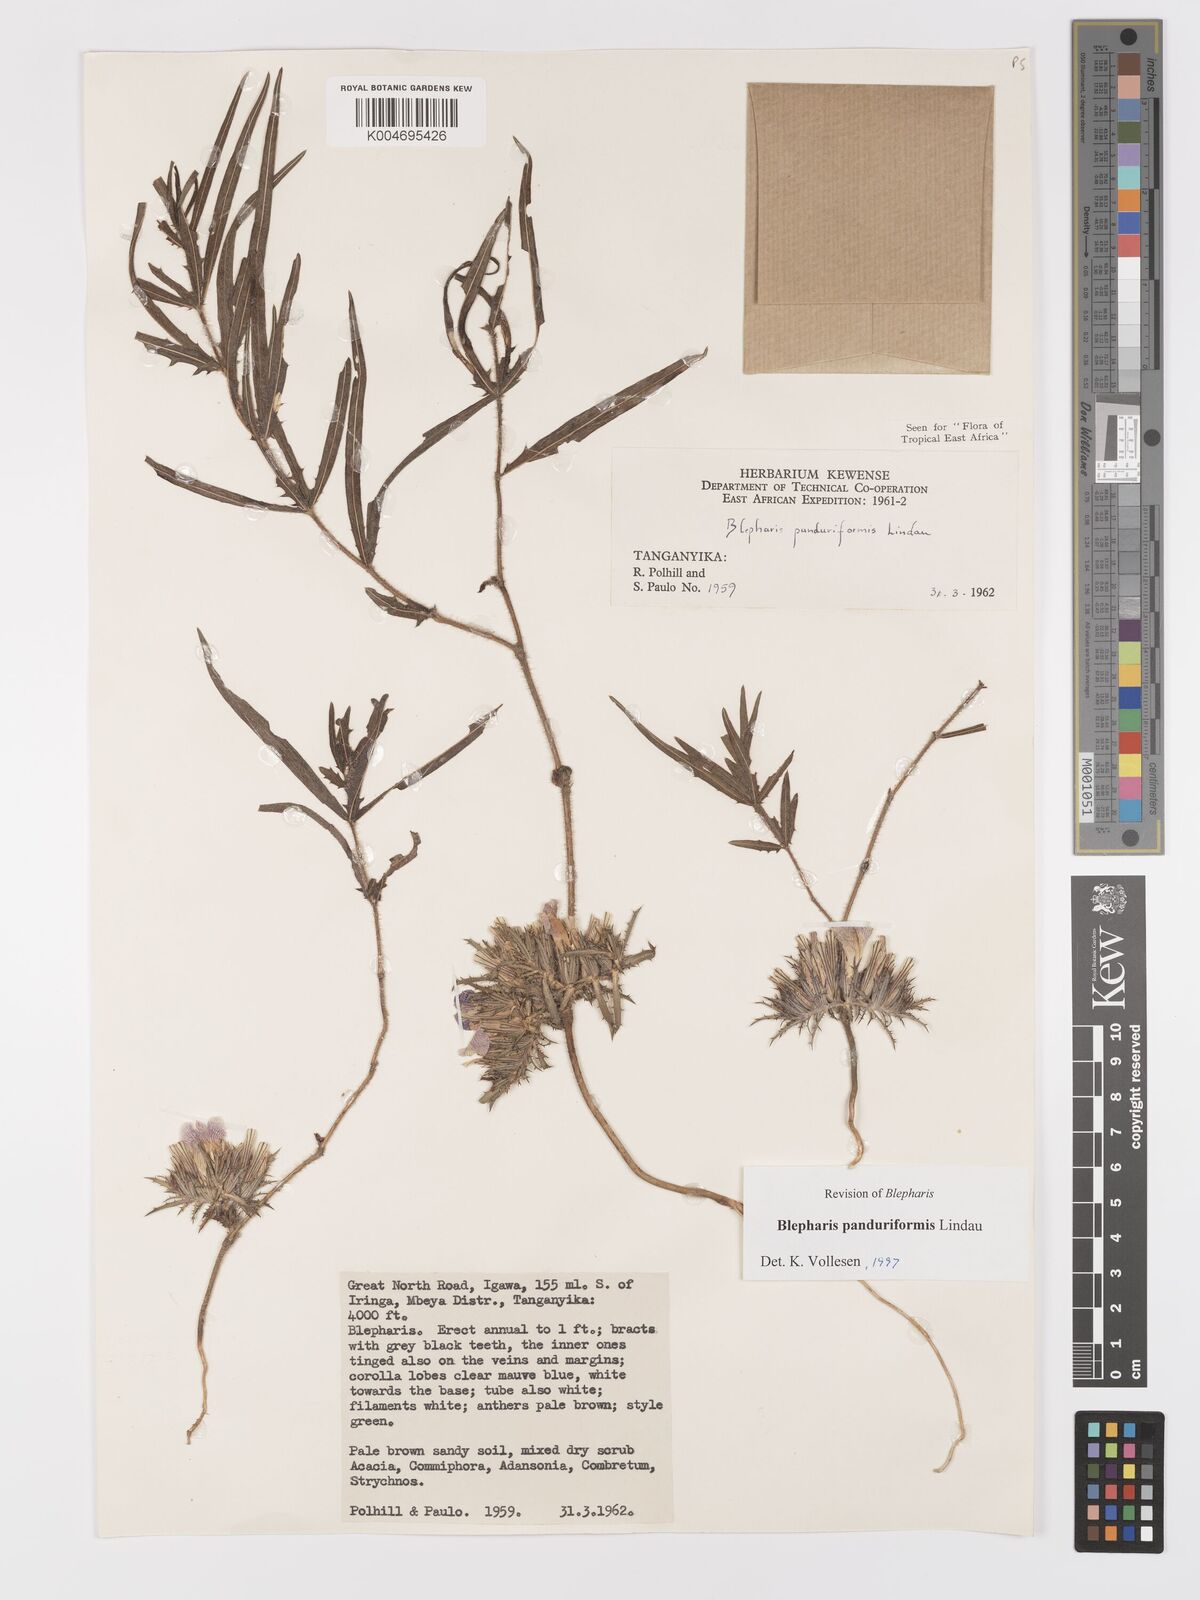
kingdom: Plantae
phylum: Tracheophyta
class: Magnoliopsida
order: Lamiales
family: Acanthaceae
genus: Blepharis
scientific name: Blepharis panduriformis
